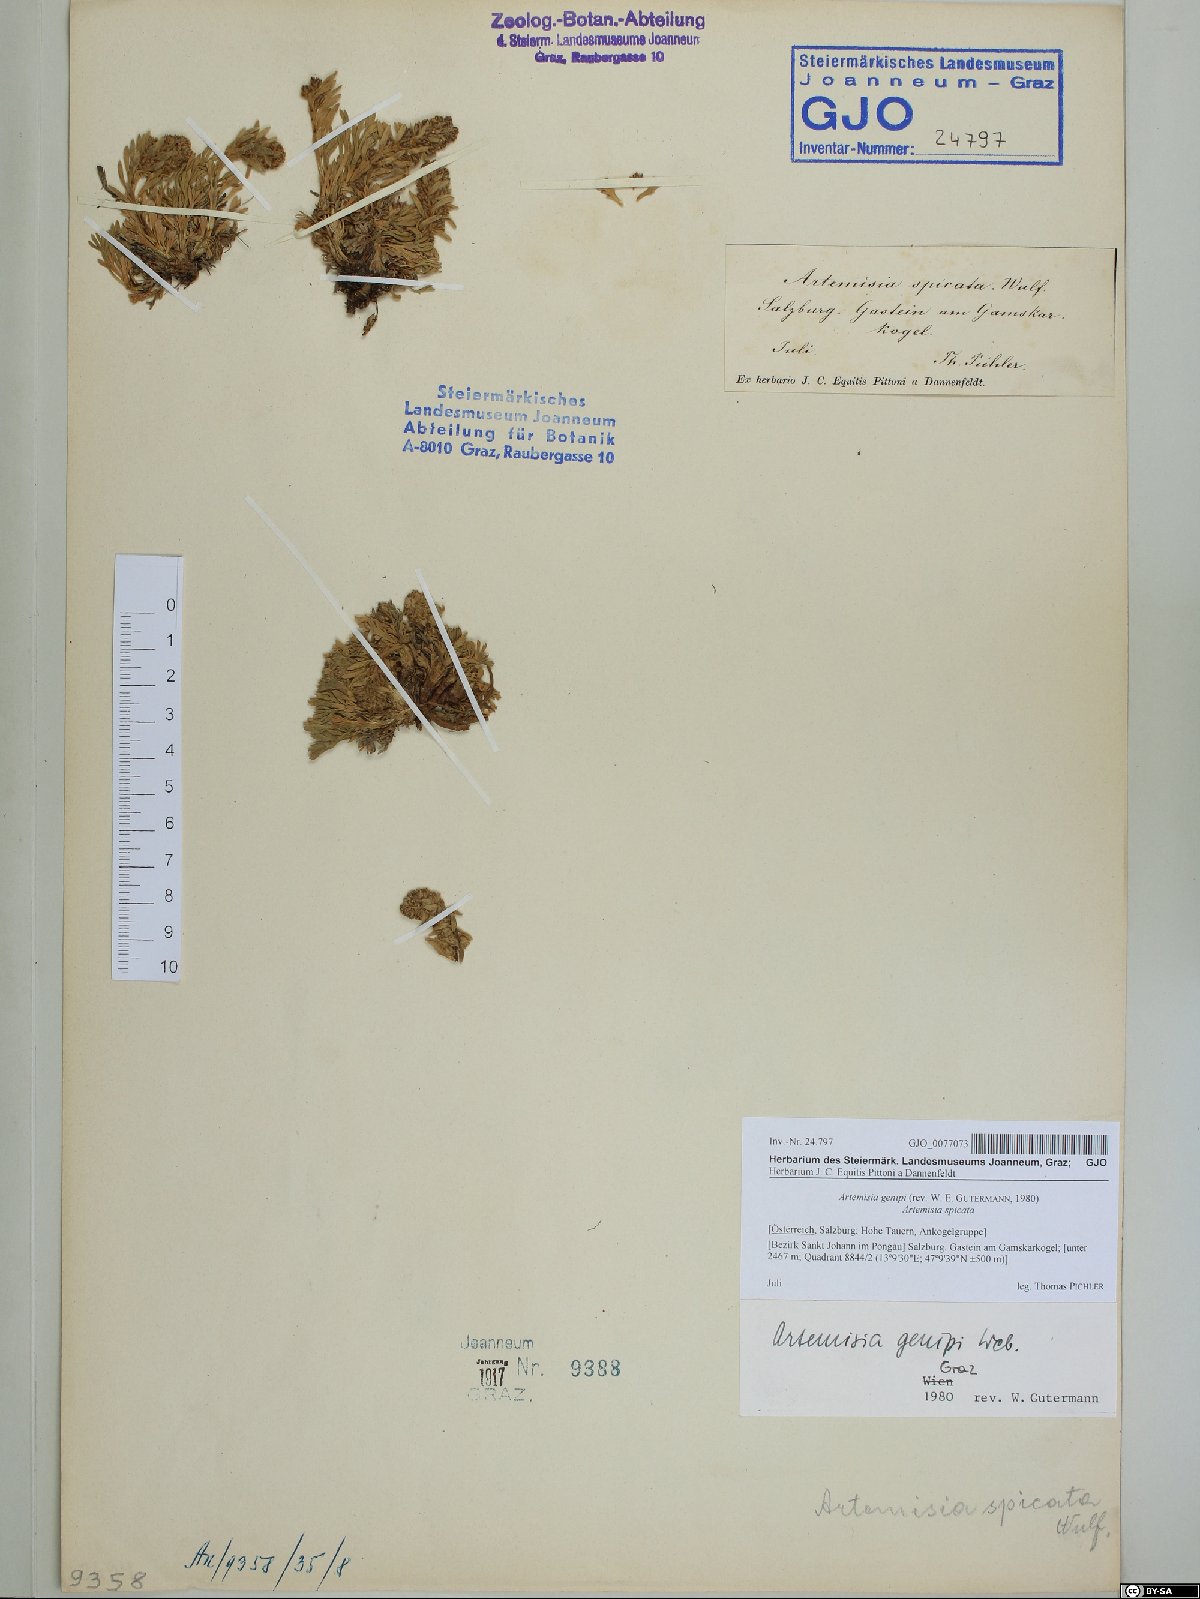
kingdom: Plantae
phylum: Tracheophyta
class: Magnoliopsida
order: Asterales
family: Asteraceae
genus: Artemisia
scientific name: Artemisia genipi
